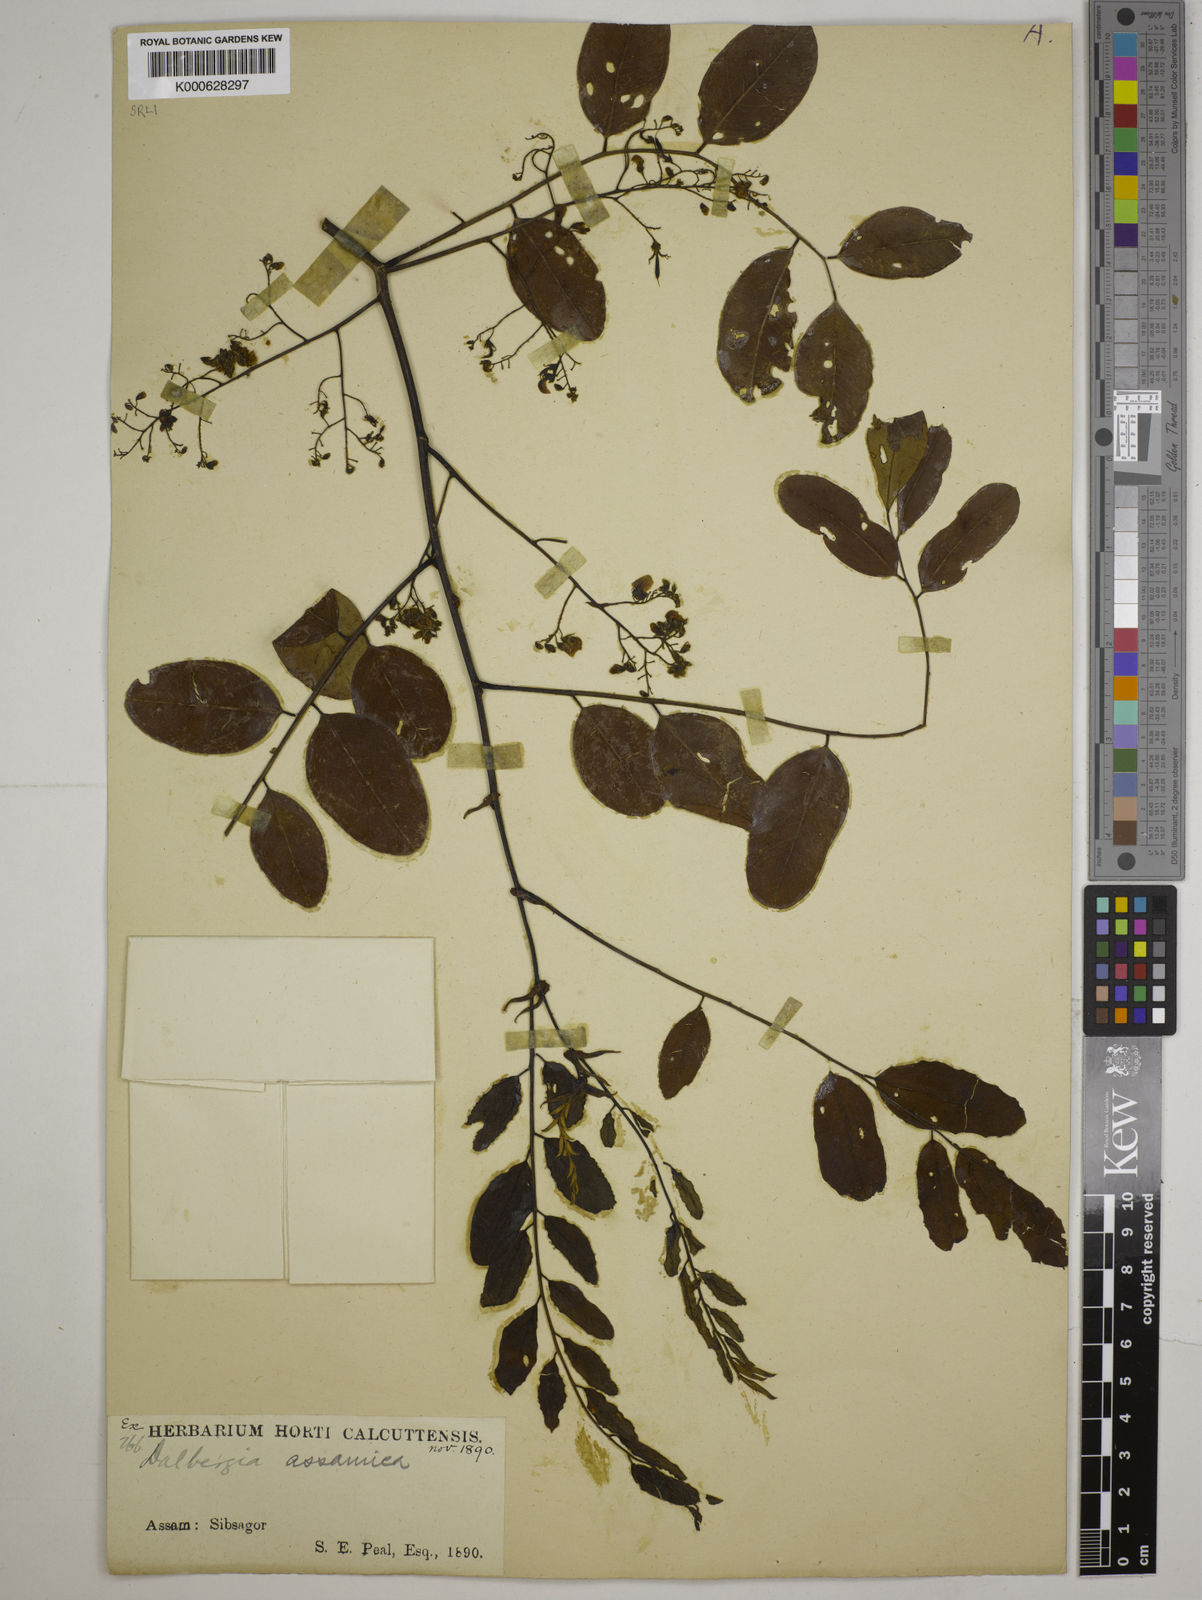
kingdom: Plantae
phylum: Tracheophyta
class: Magnoliopsida
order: Fabales
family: Fabaceae
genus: Dalbergia
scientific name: Dalbergia assamica
